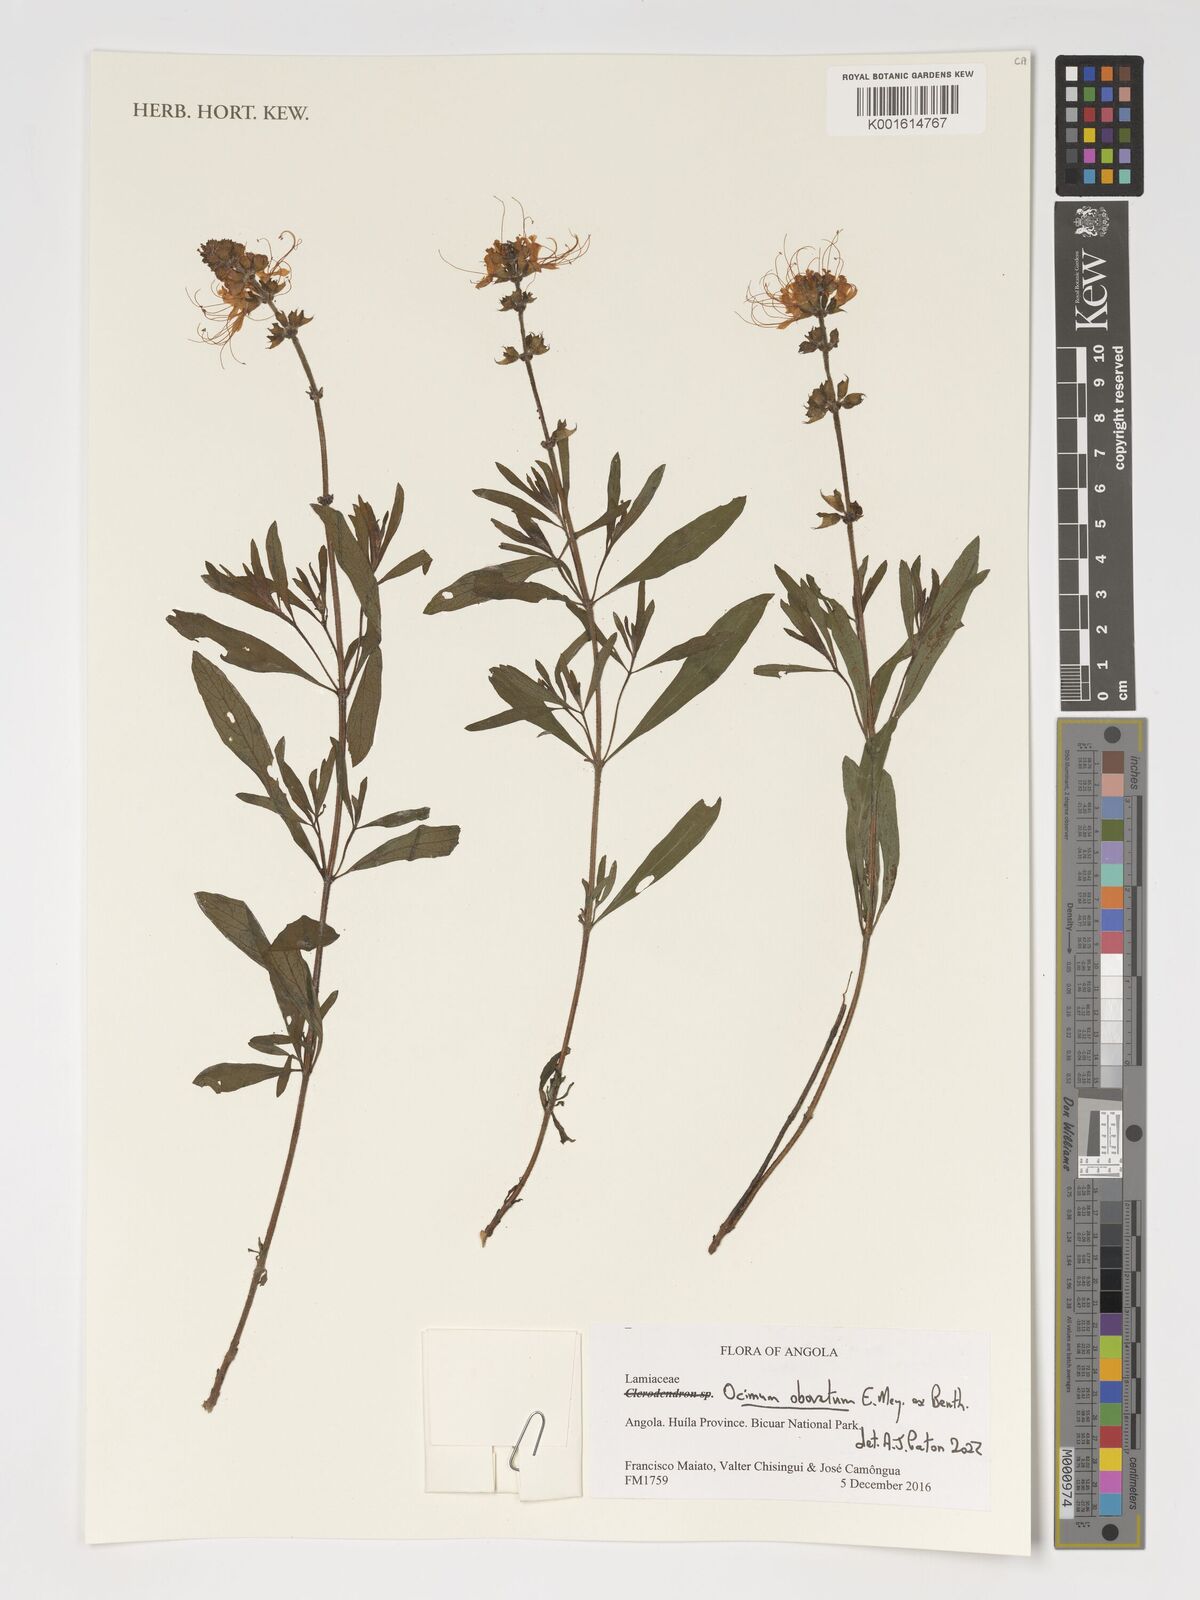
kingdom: Plantae
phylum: Tracheophyta
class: Magnoliopsida
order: Lamiales
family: Lamiaceae
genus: Ocimum
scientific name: Ocimum obovatum
